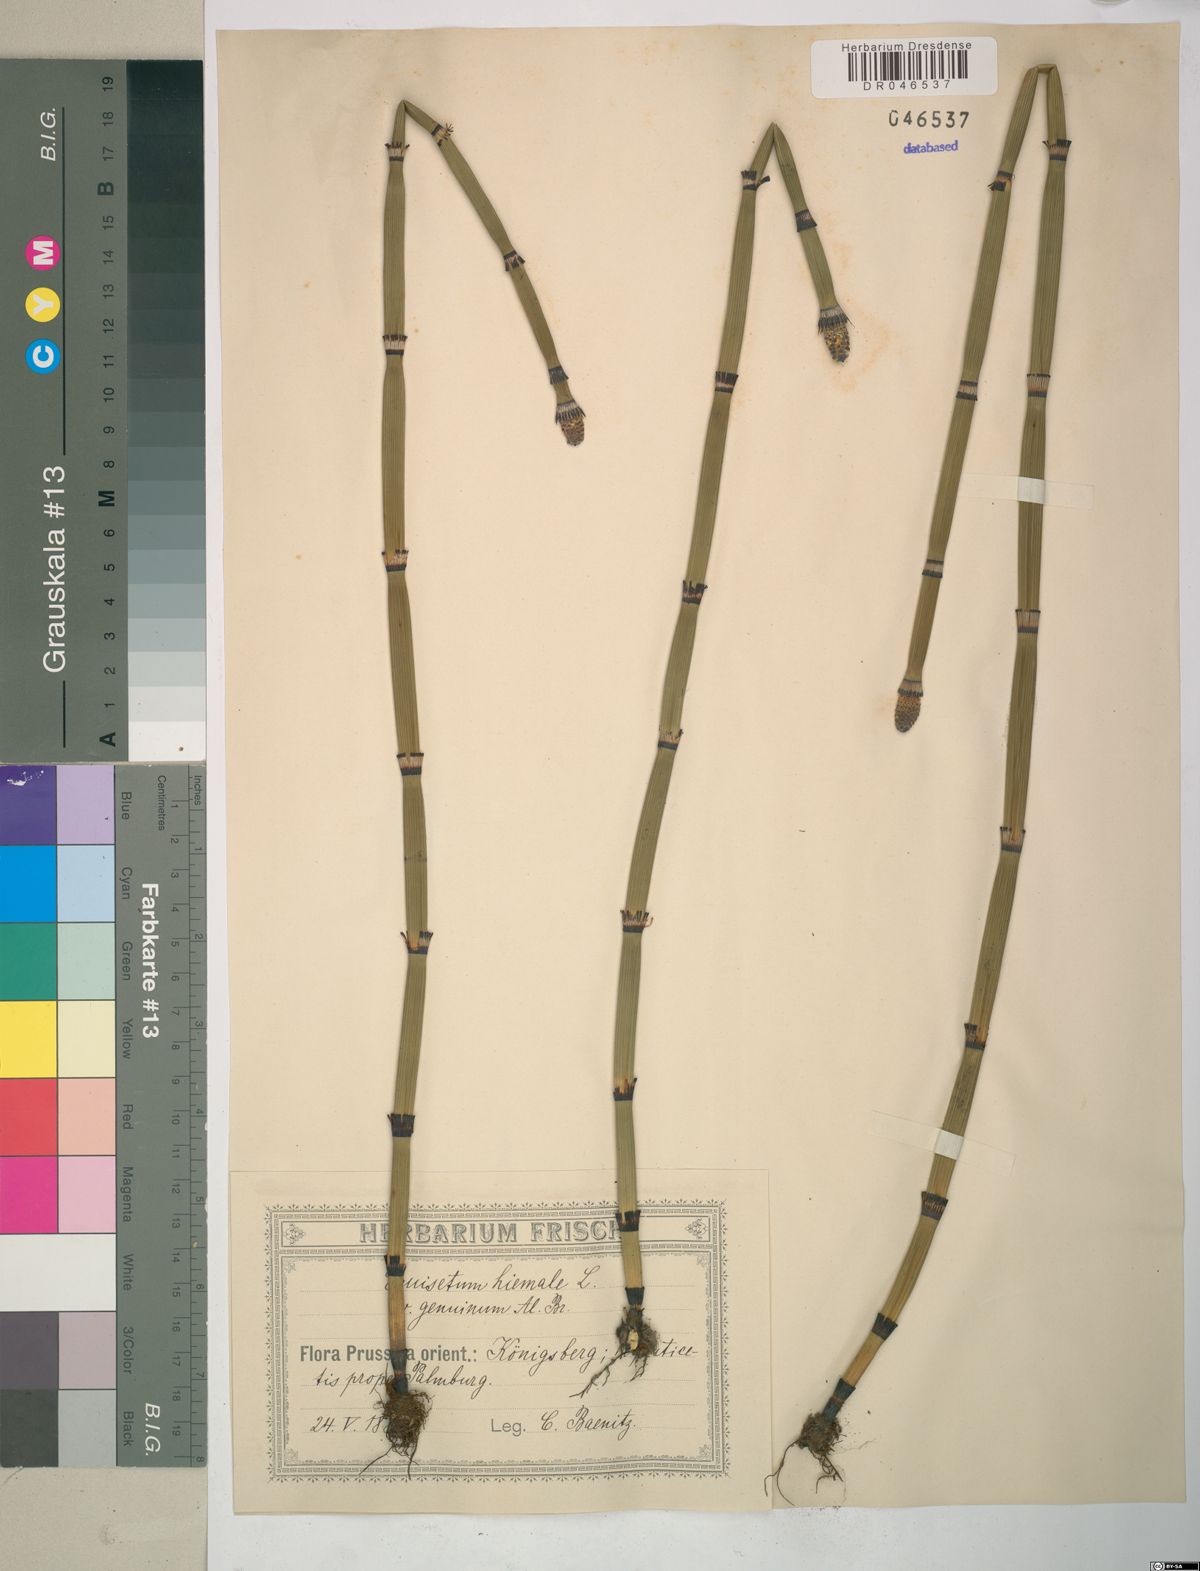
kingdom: Plantae
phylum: Tracheophyta
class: Polypodiopsida
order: Equisetales
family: Equisetaceae
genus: Equisetum
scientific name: Equisetum hyemale
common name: Rough horsetail
